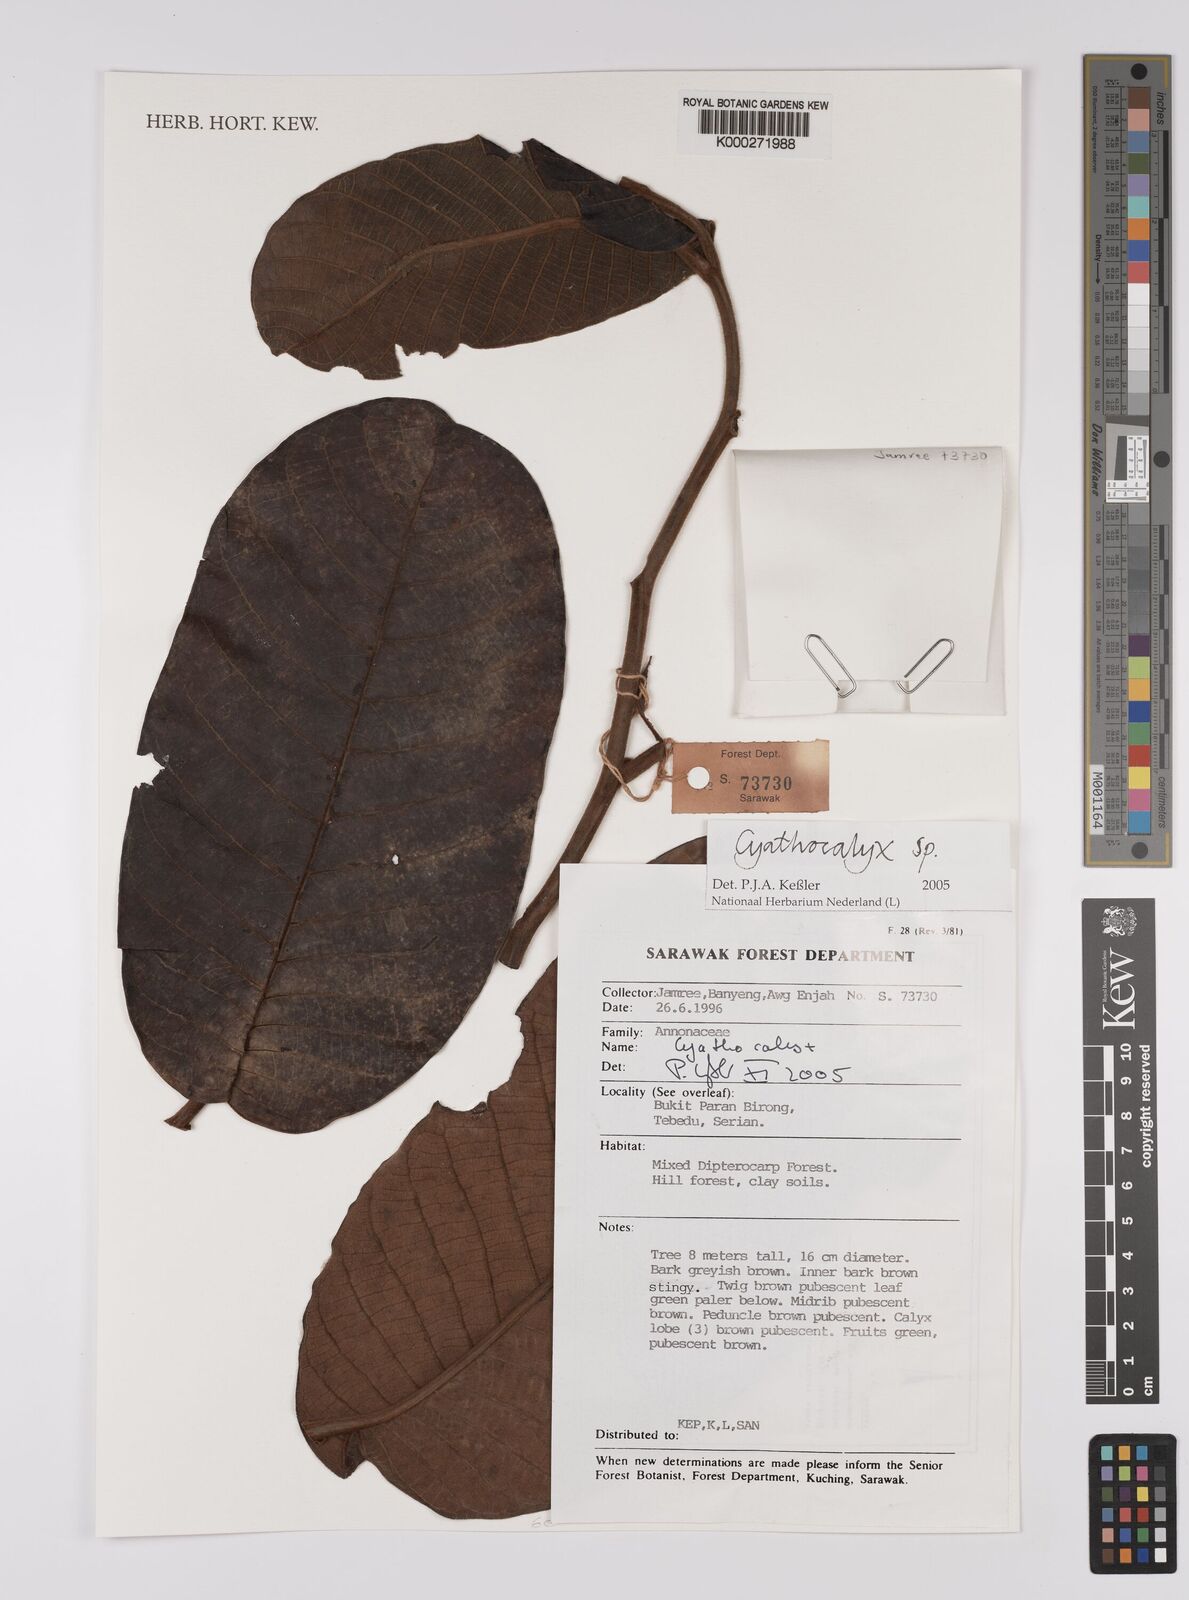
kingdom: Plantae
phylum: Tracheophyta
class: Magnoliopsida
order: Magnoliales
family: Annonaceae
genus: Cyathocalyx
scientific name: Cyathocalyx
